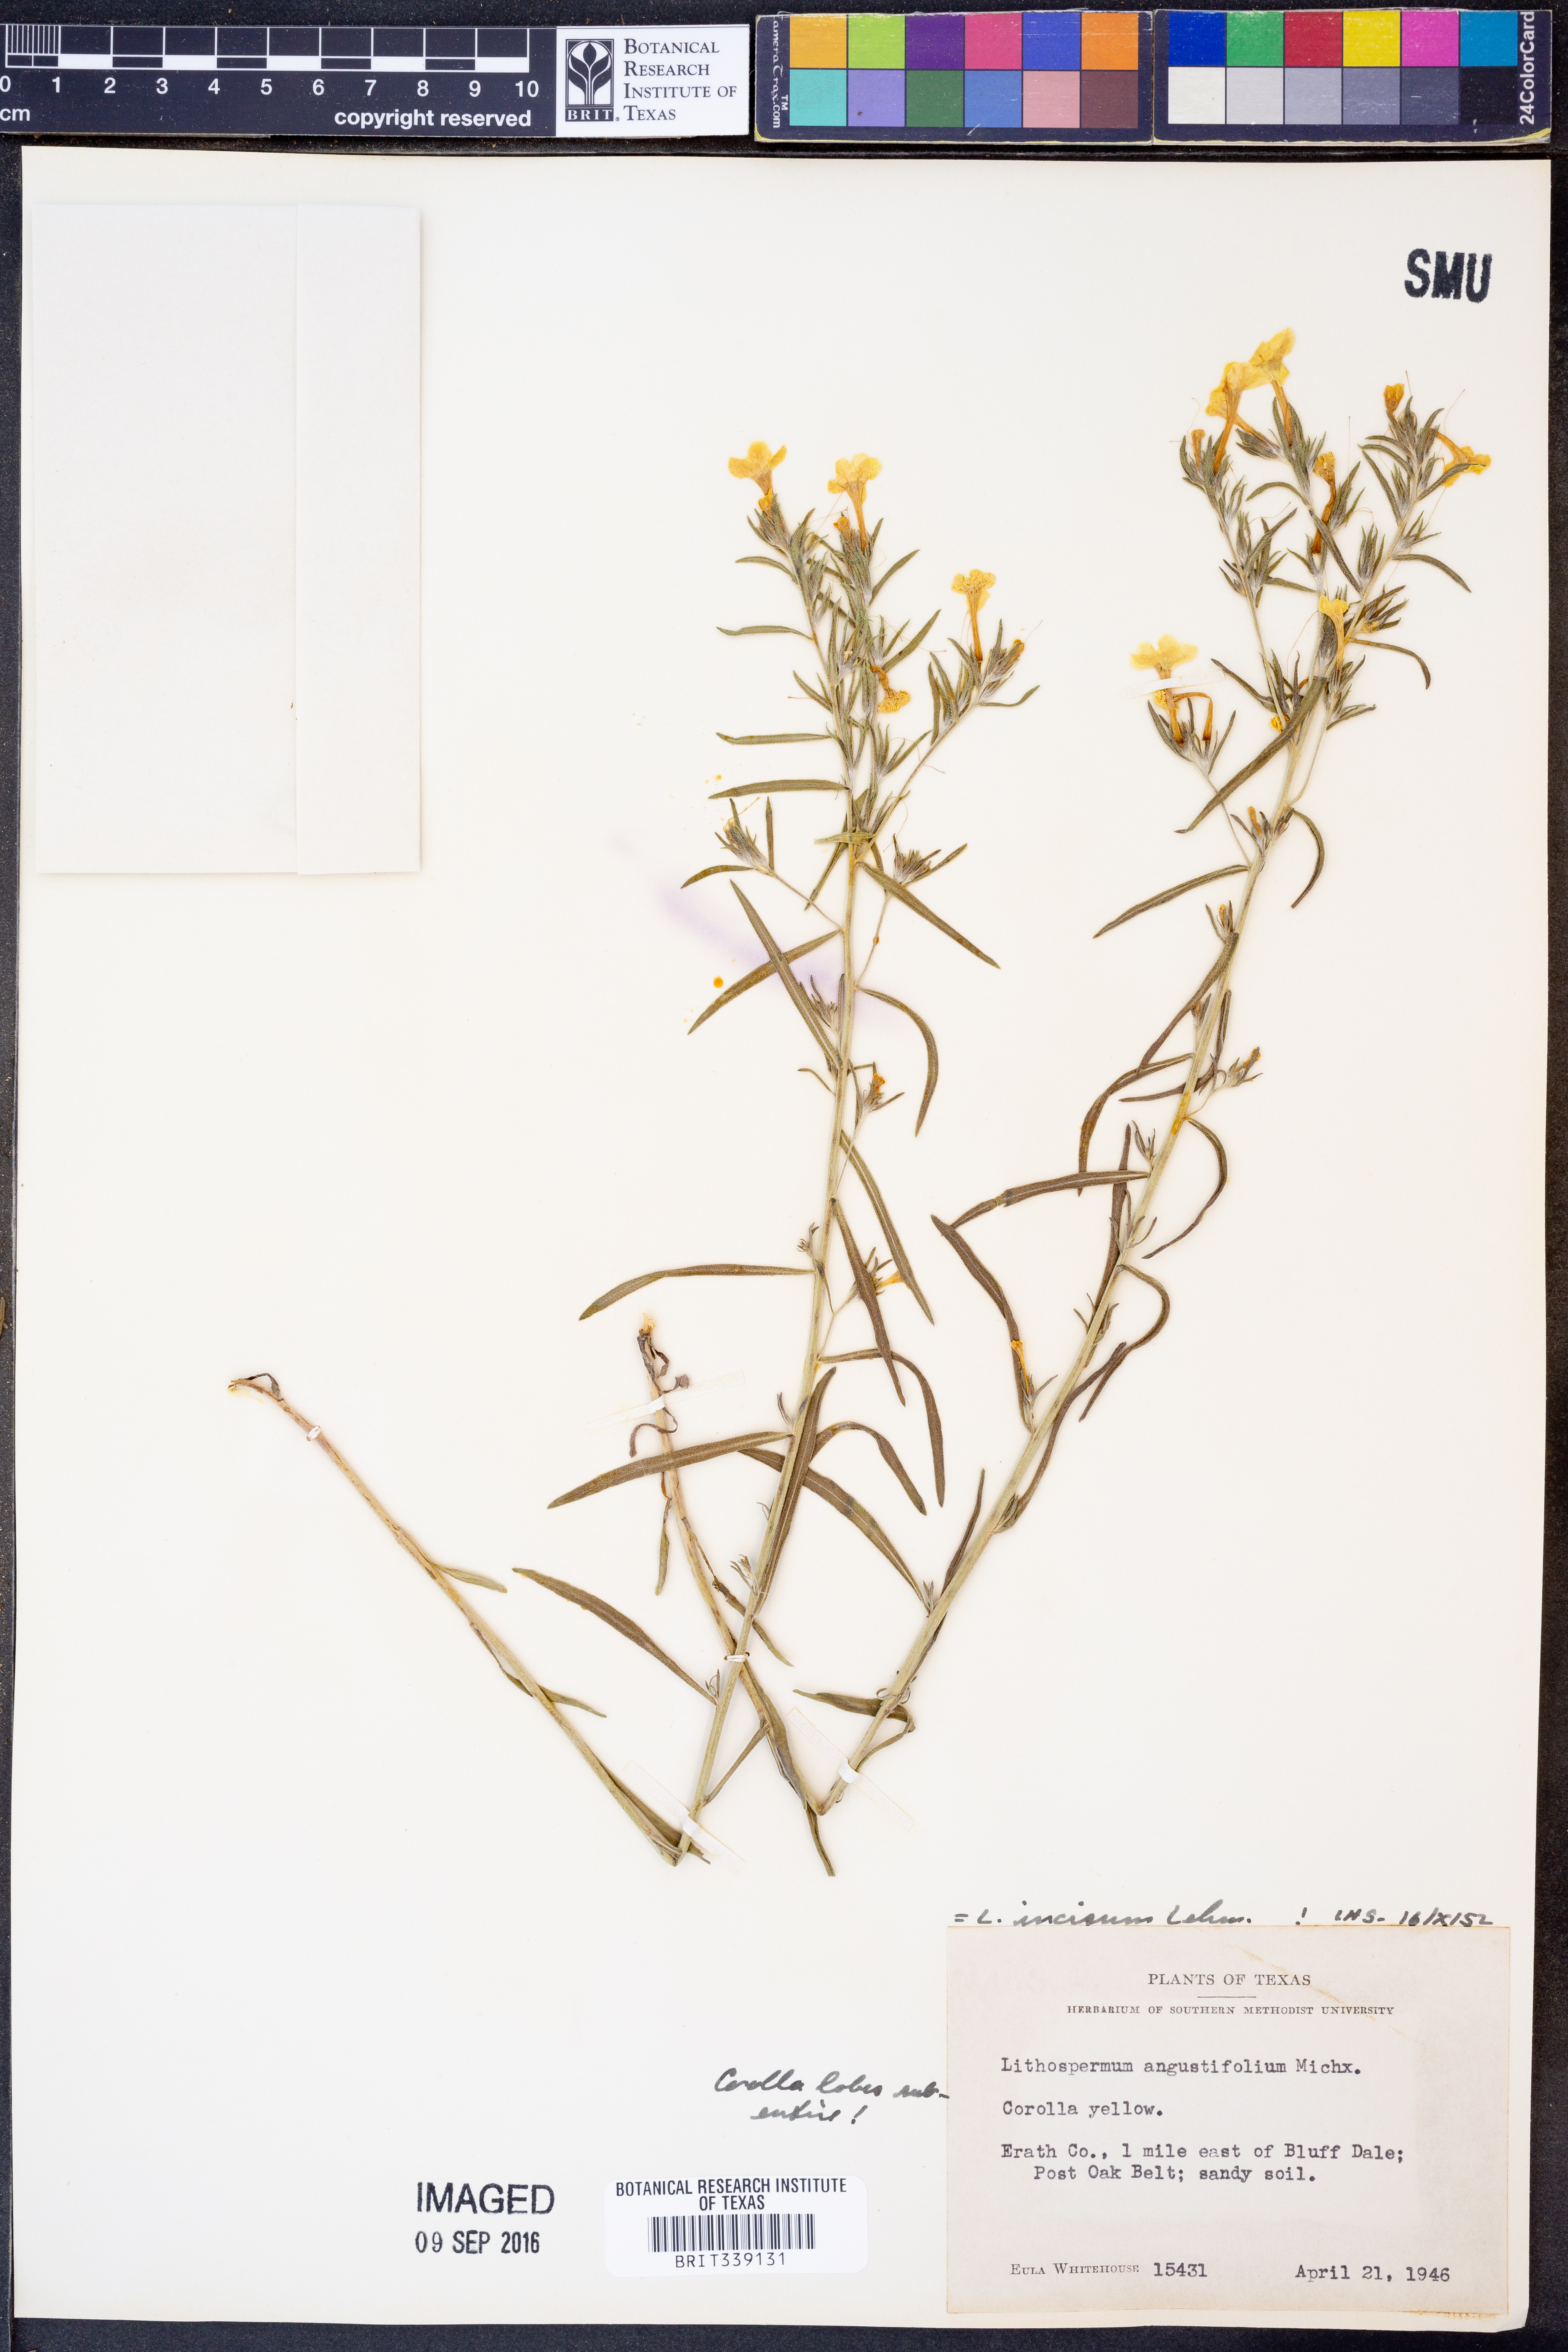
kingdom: Plantae
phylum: Tracheophyta
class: Magnoliopsida
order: Boraginales
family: Boraginaceae
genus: Lithospermum
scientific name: Lithospermum incisum
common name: Fringed gromwell
